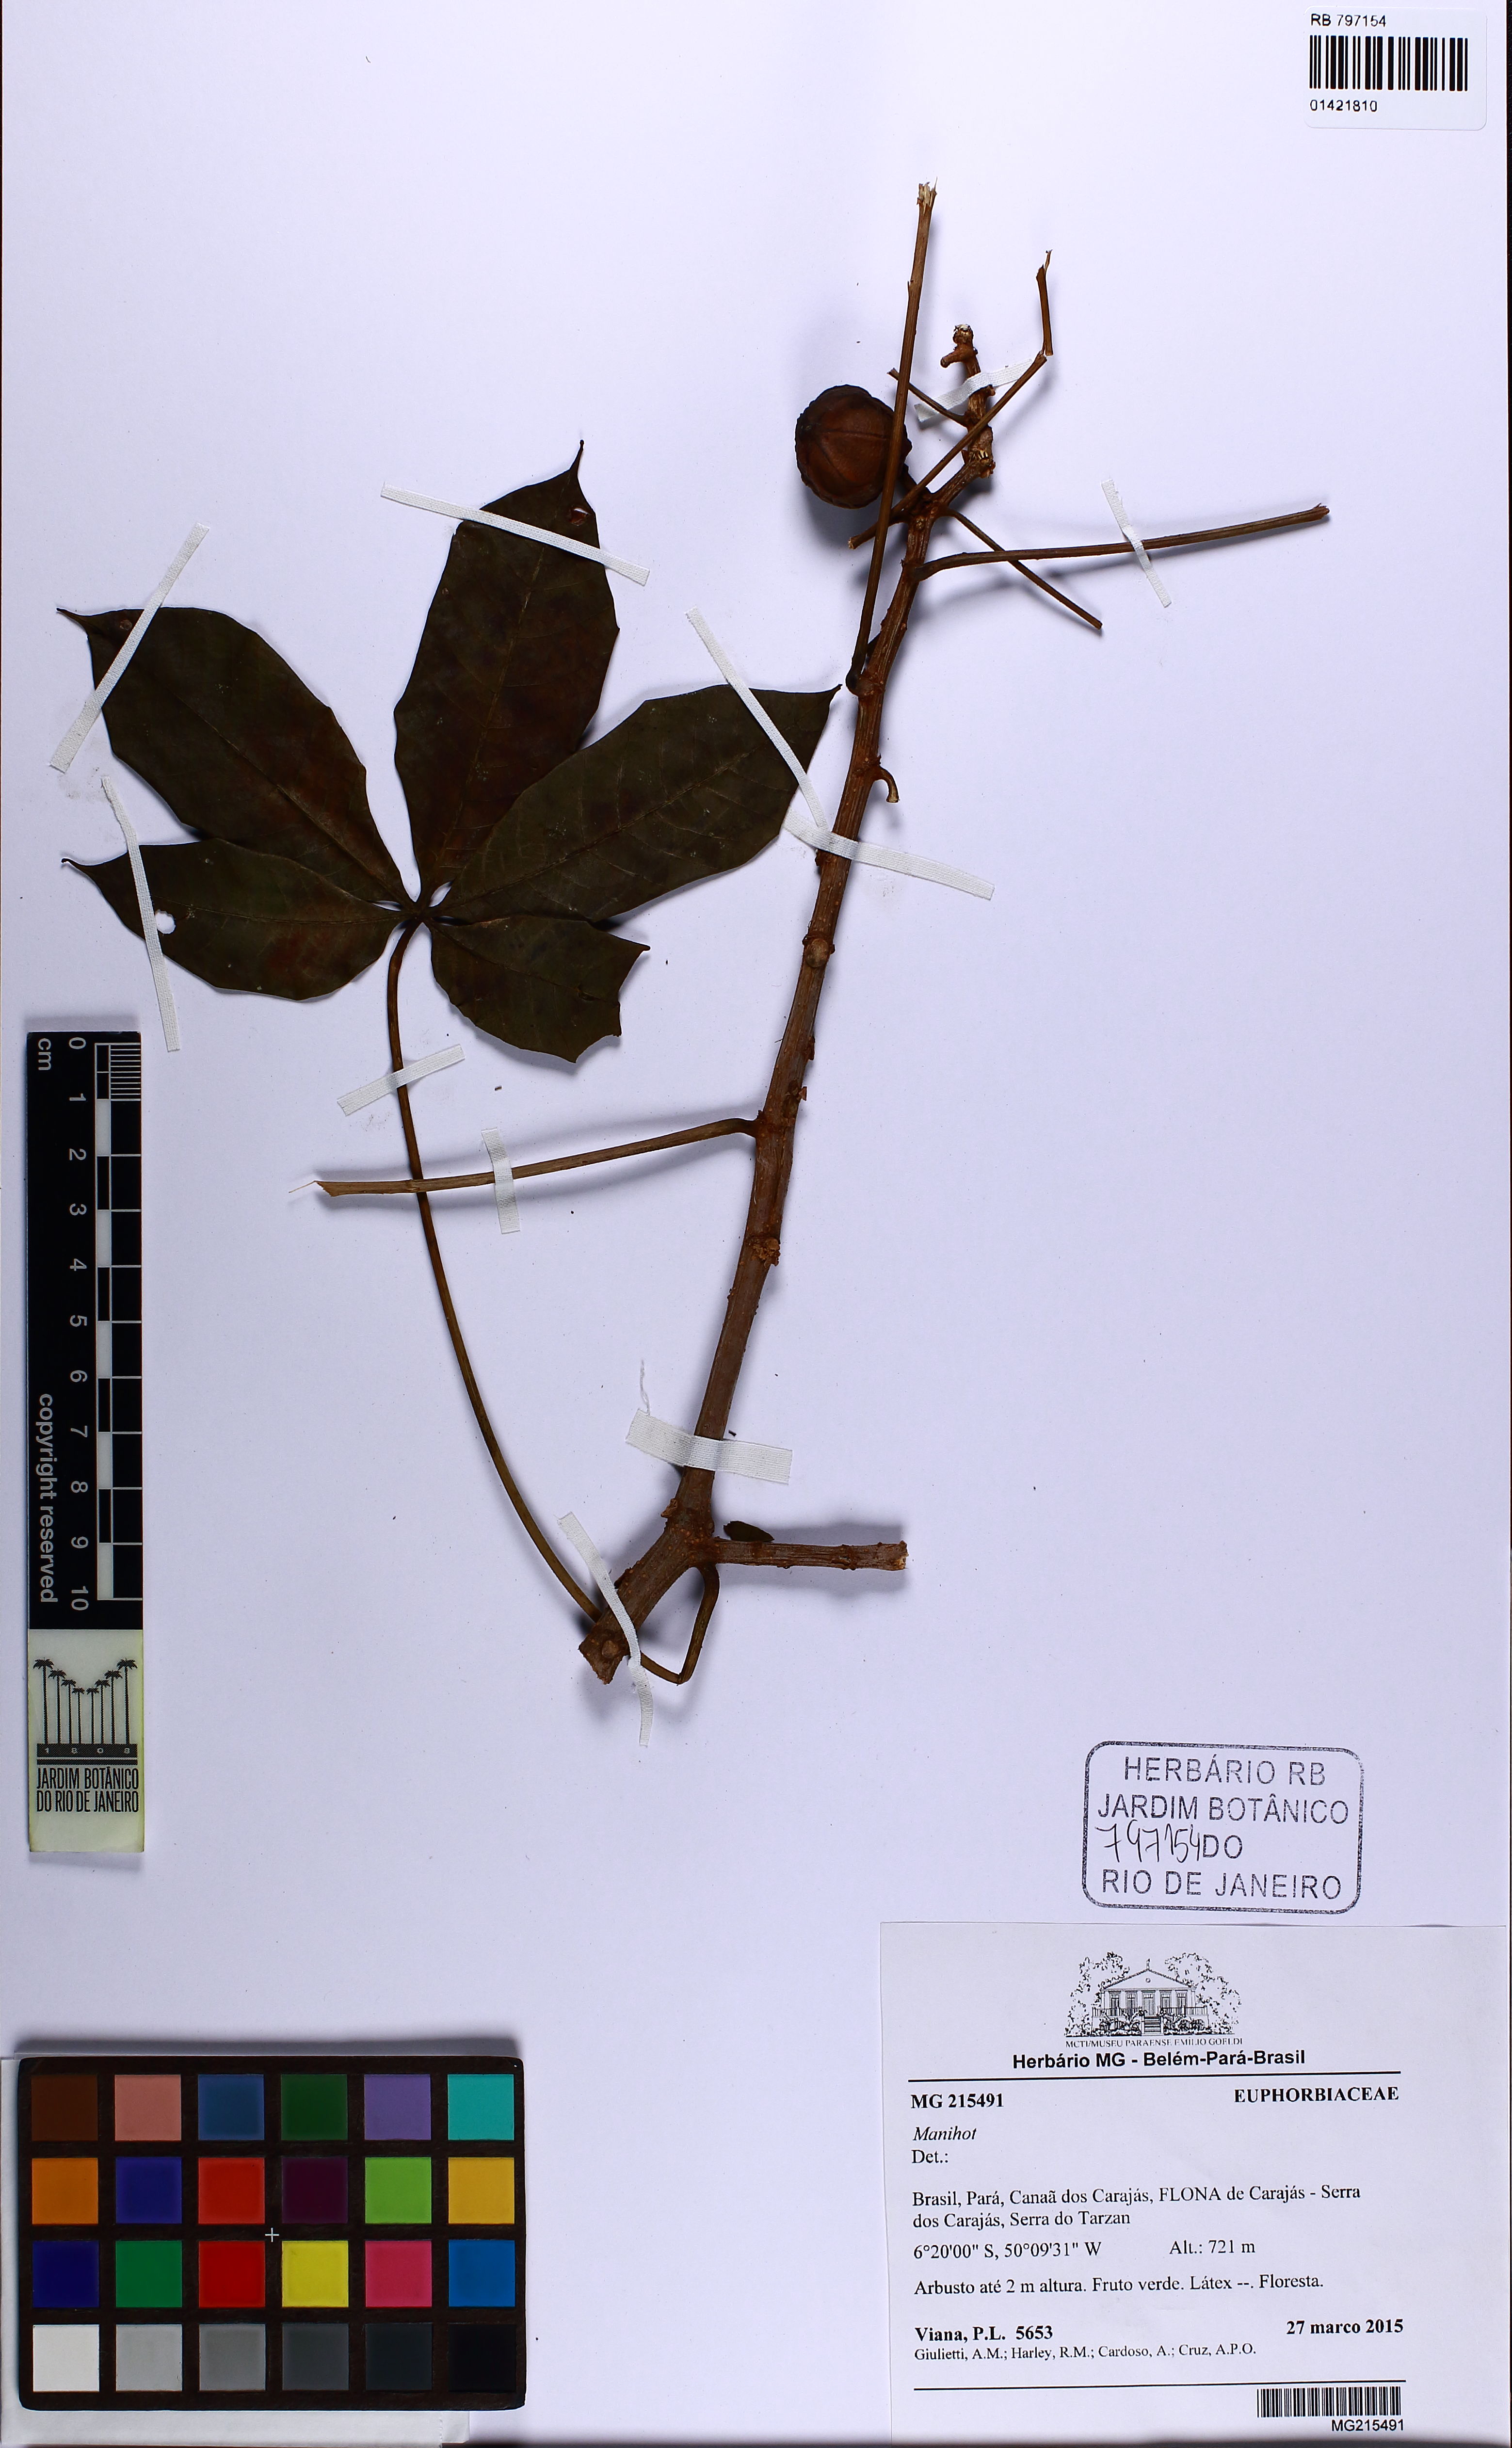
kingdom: Plantae
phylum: Tracheophyta
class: Magnoliopsida
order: Malpighiales
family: Euphorbiaceae
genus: Manihot
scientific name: Manihot
